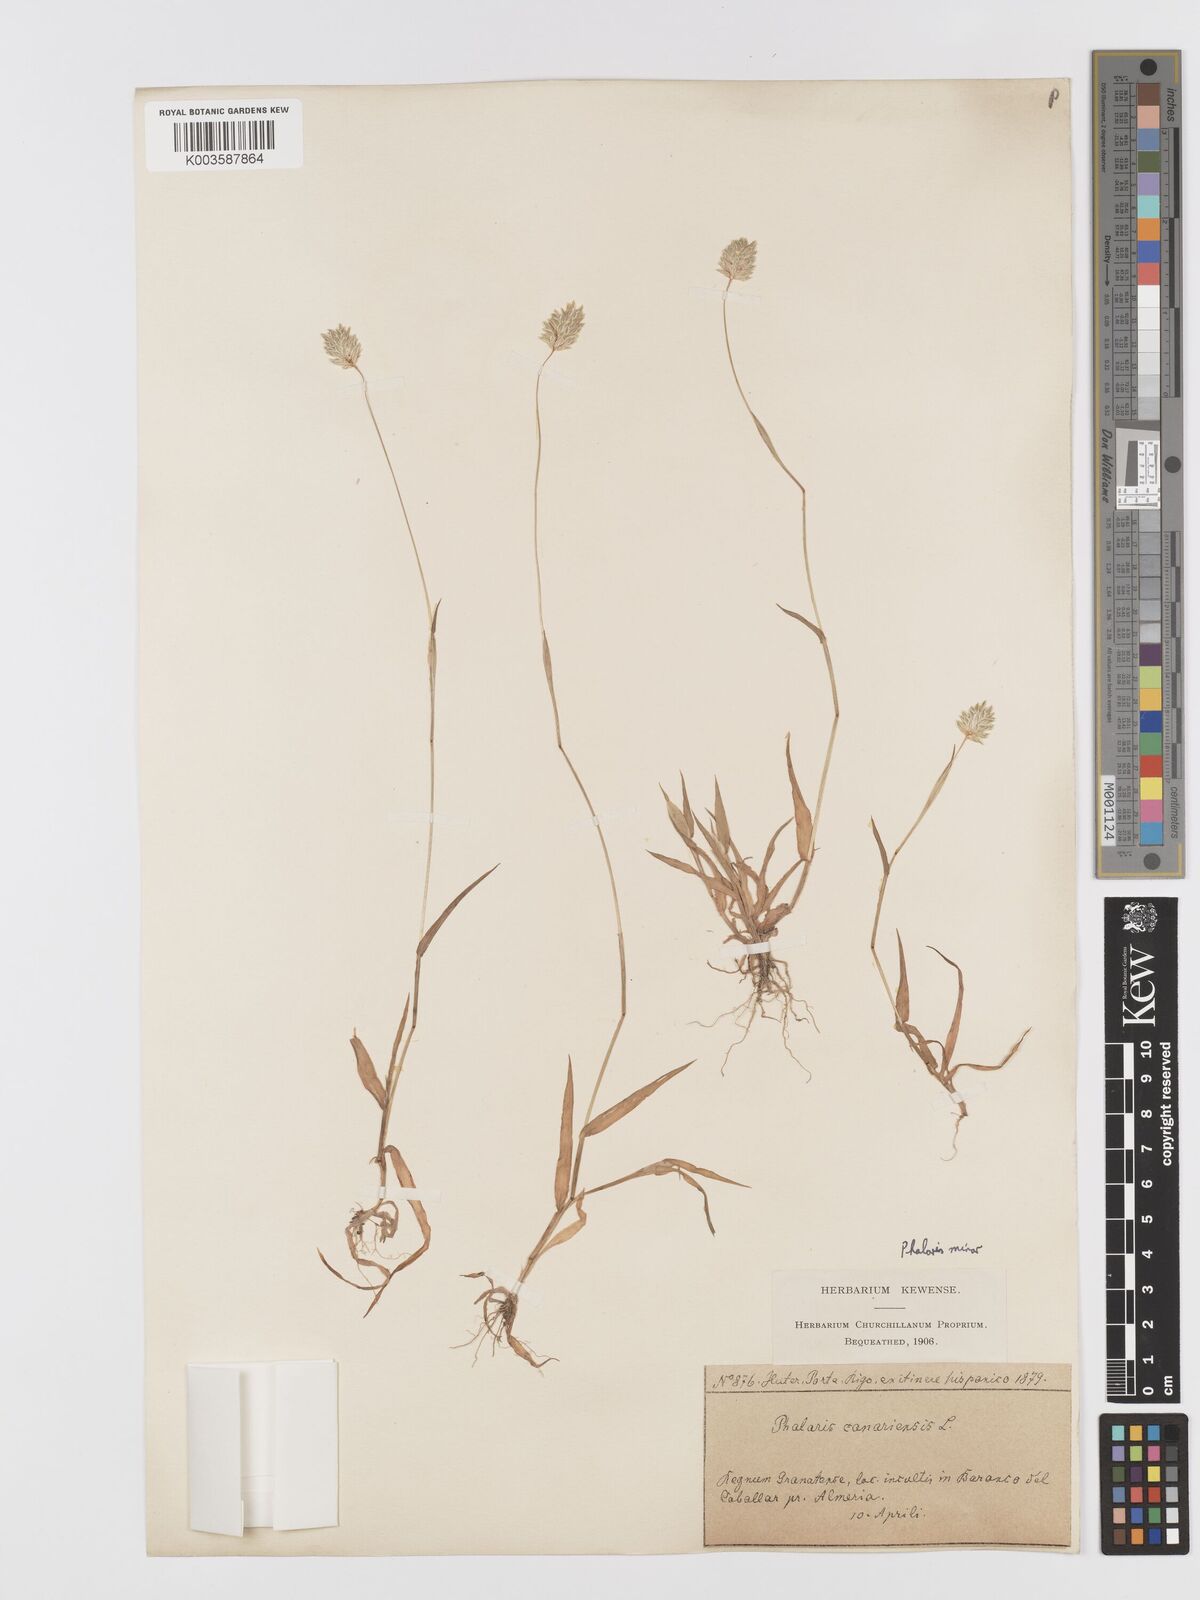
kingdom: Plantae
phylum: Tracheophyta
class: Liliopsida
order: Poales
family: Poaceae
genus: Phalaris
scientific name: Phalaris minor
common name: Littleseed canarygrass
